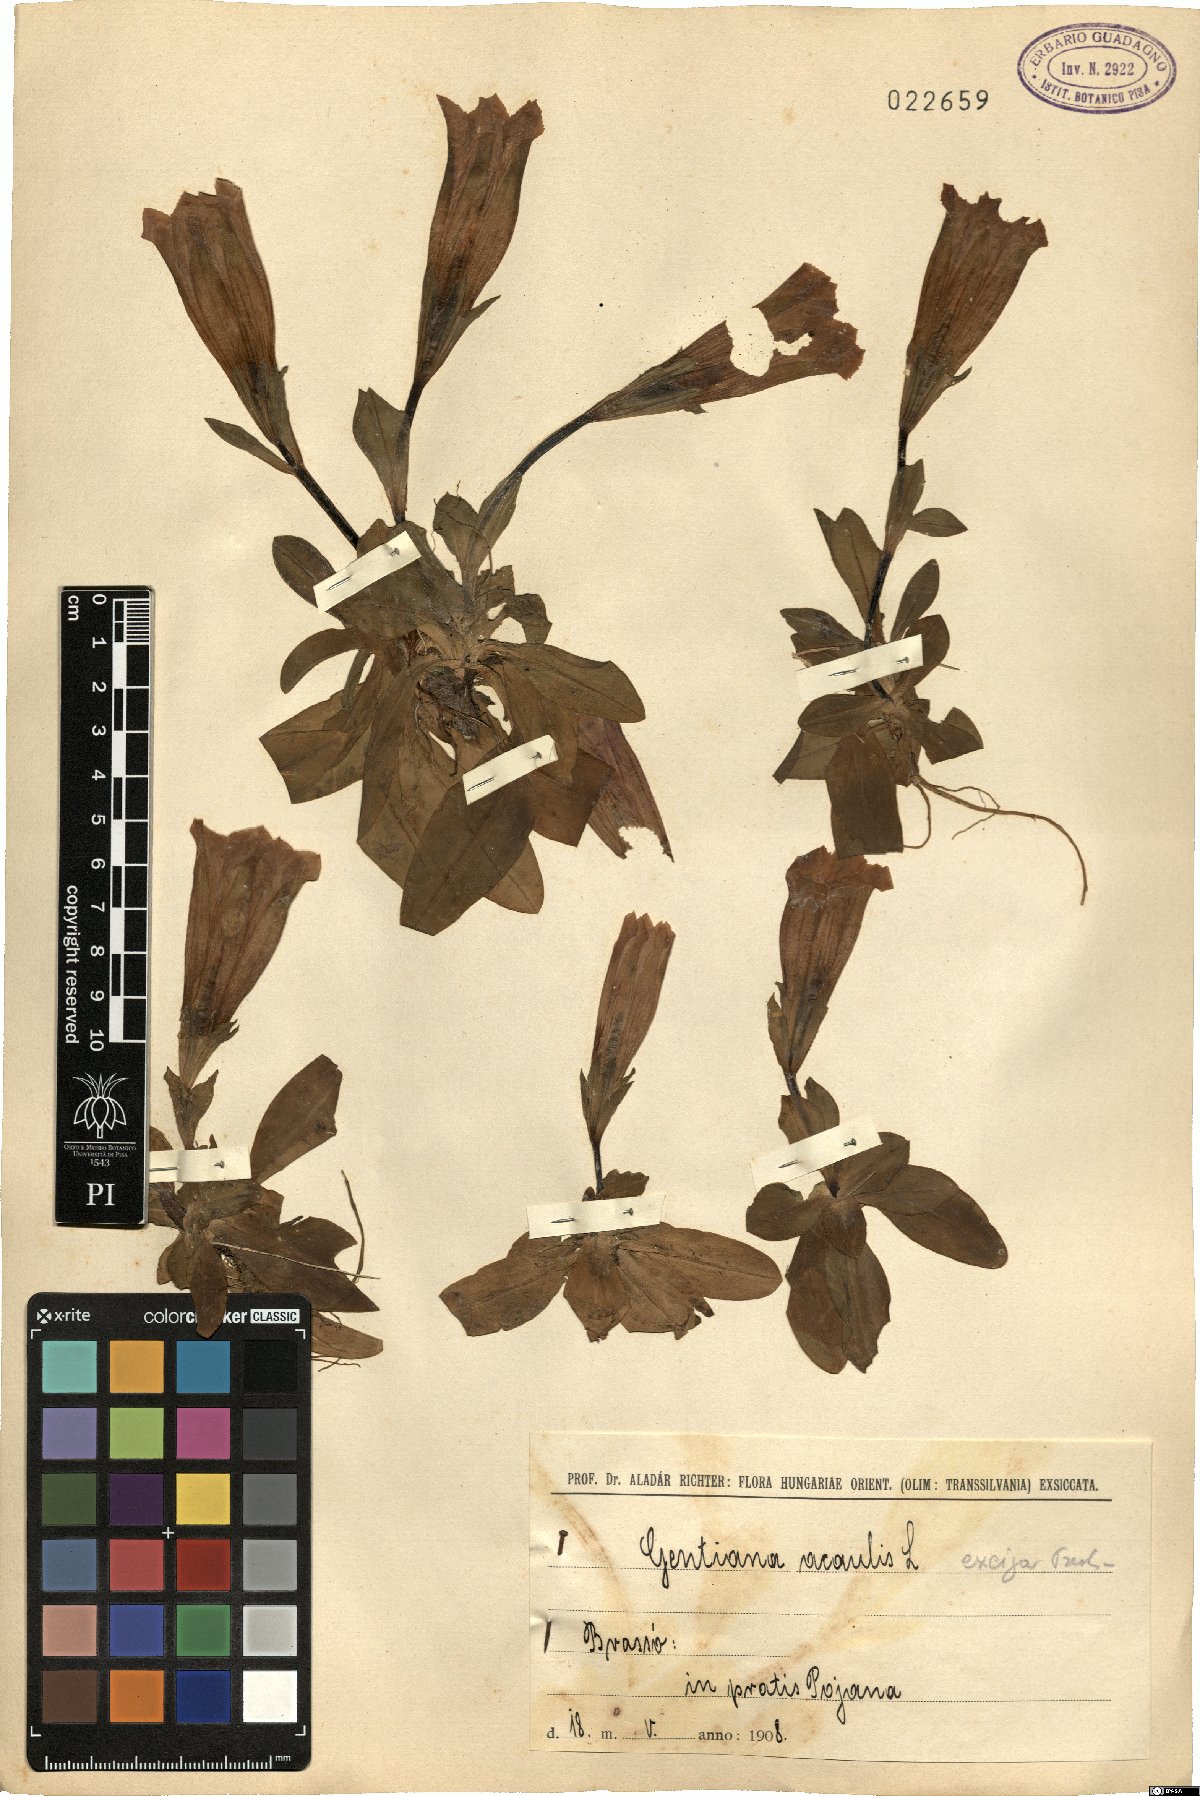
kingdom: Plantae
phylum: Tracheophyta
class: Magnoliopsida
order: Gentianales
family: Gentianaceae
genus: Gentiana
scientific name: Gentiana acaulis
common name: Trumpet gentian
